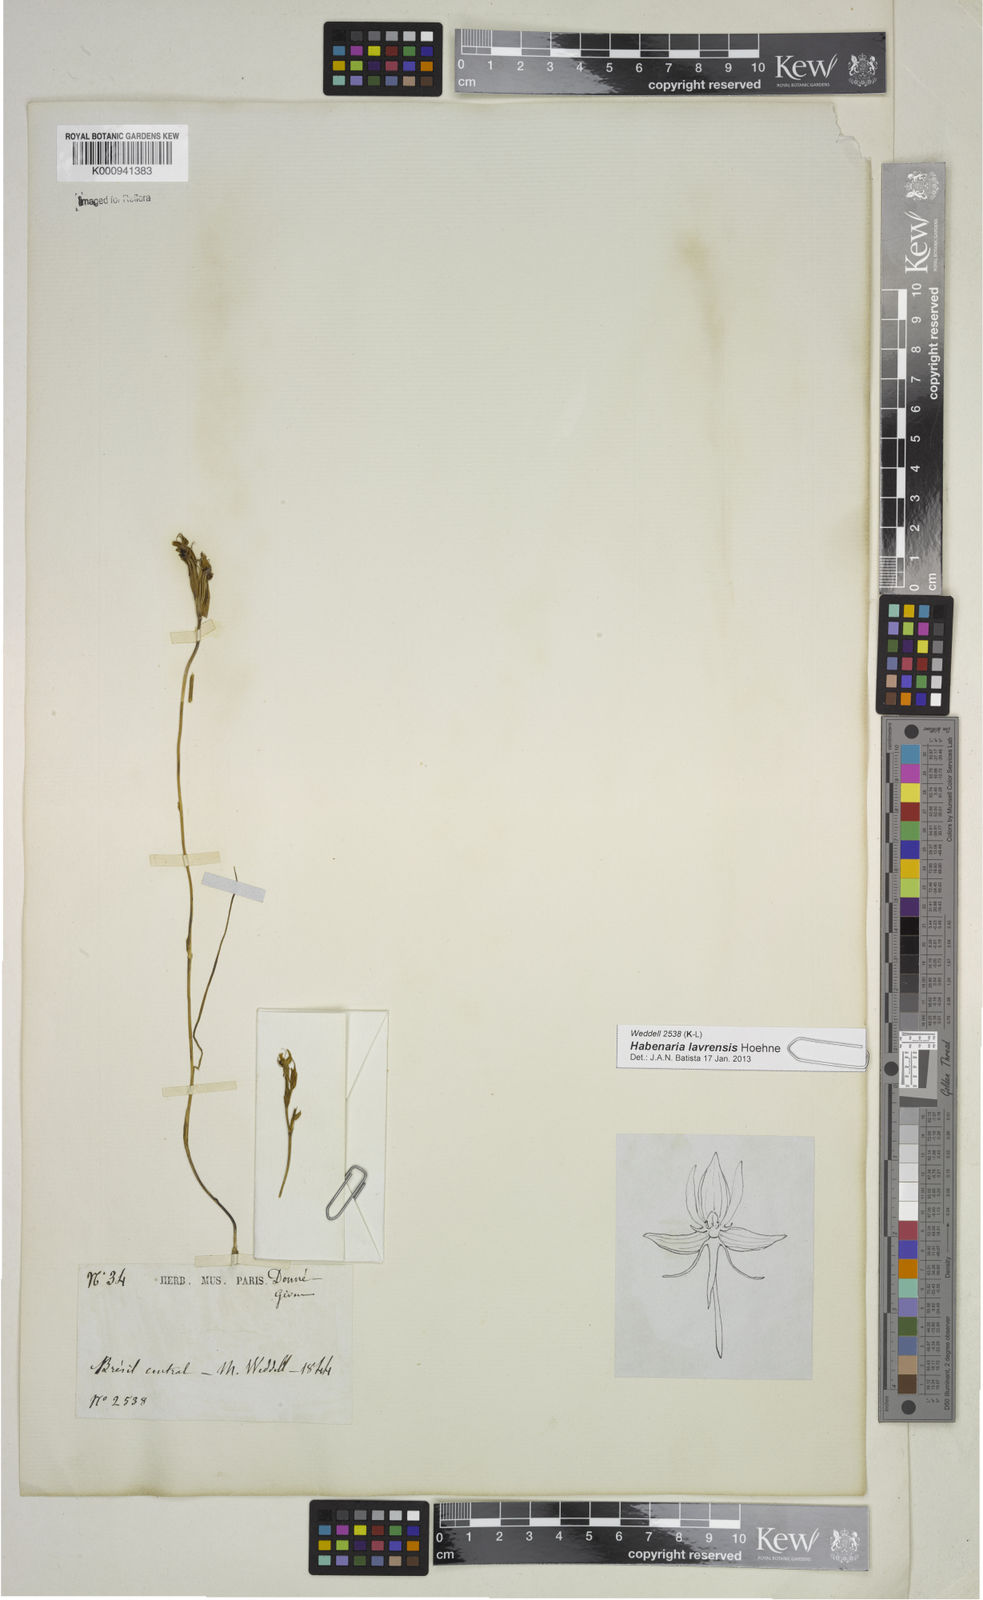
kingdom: Plantae
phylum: Tracheophyta
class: Liliopsida
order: Asparagales
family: Orchidaceae
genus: Habenaria
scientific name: Habenaria lavrensis
